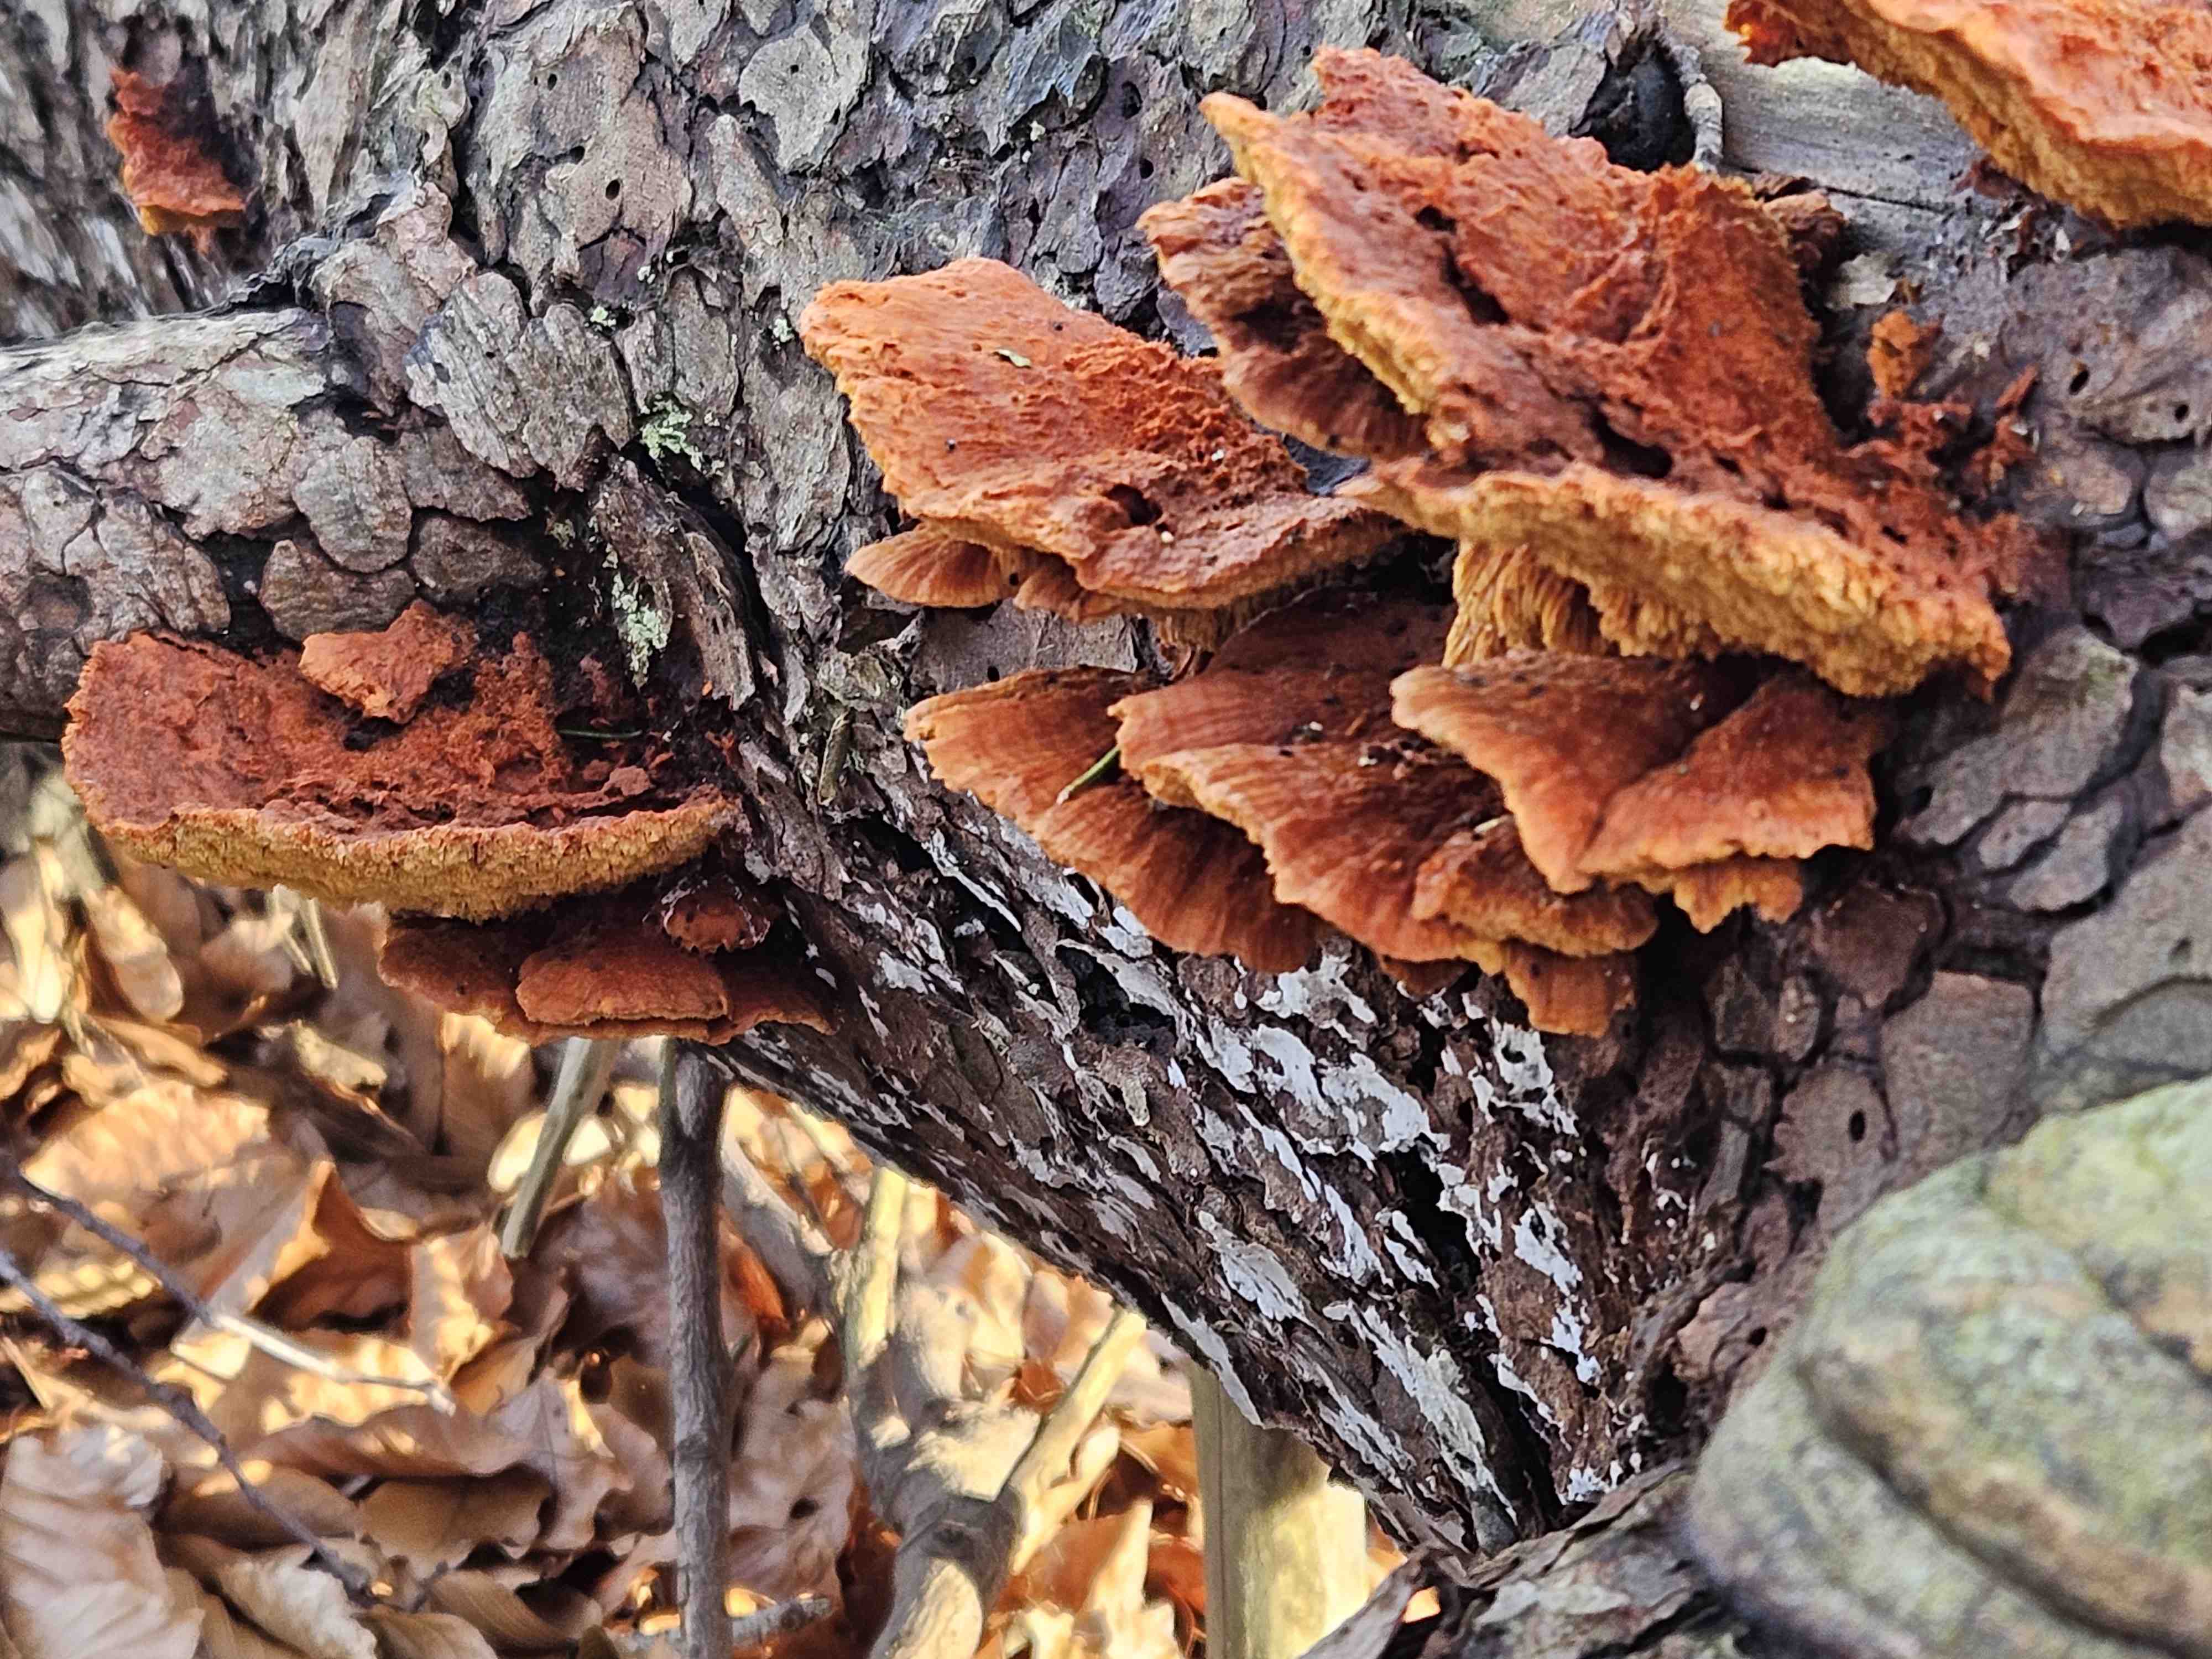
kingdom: Fungi
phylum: Basidiomycota
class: Agaricomycetes
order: Polyporales
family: Pycnoporellaceae
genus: Pycnoporellus
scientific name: Pycnoporellus fulgens
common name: flammeporesvamp
